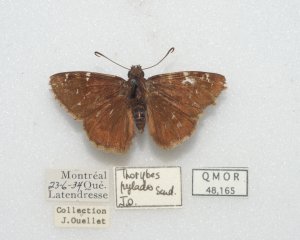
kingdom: Animalia
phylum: Arthropoda
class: Insecta
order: Lepidoptera
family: Hesperiidae
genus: Autochton
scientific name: Autochton
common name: Northern Cloudywing
